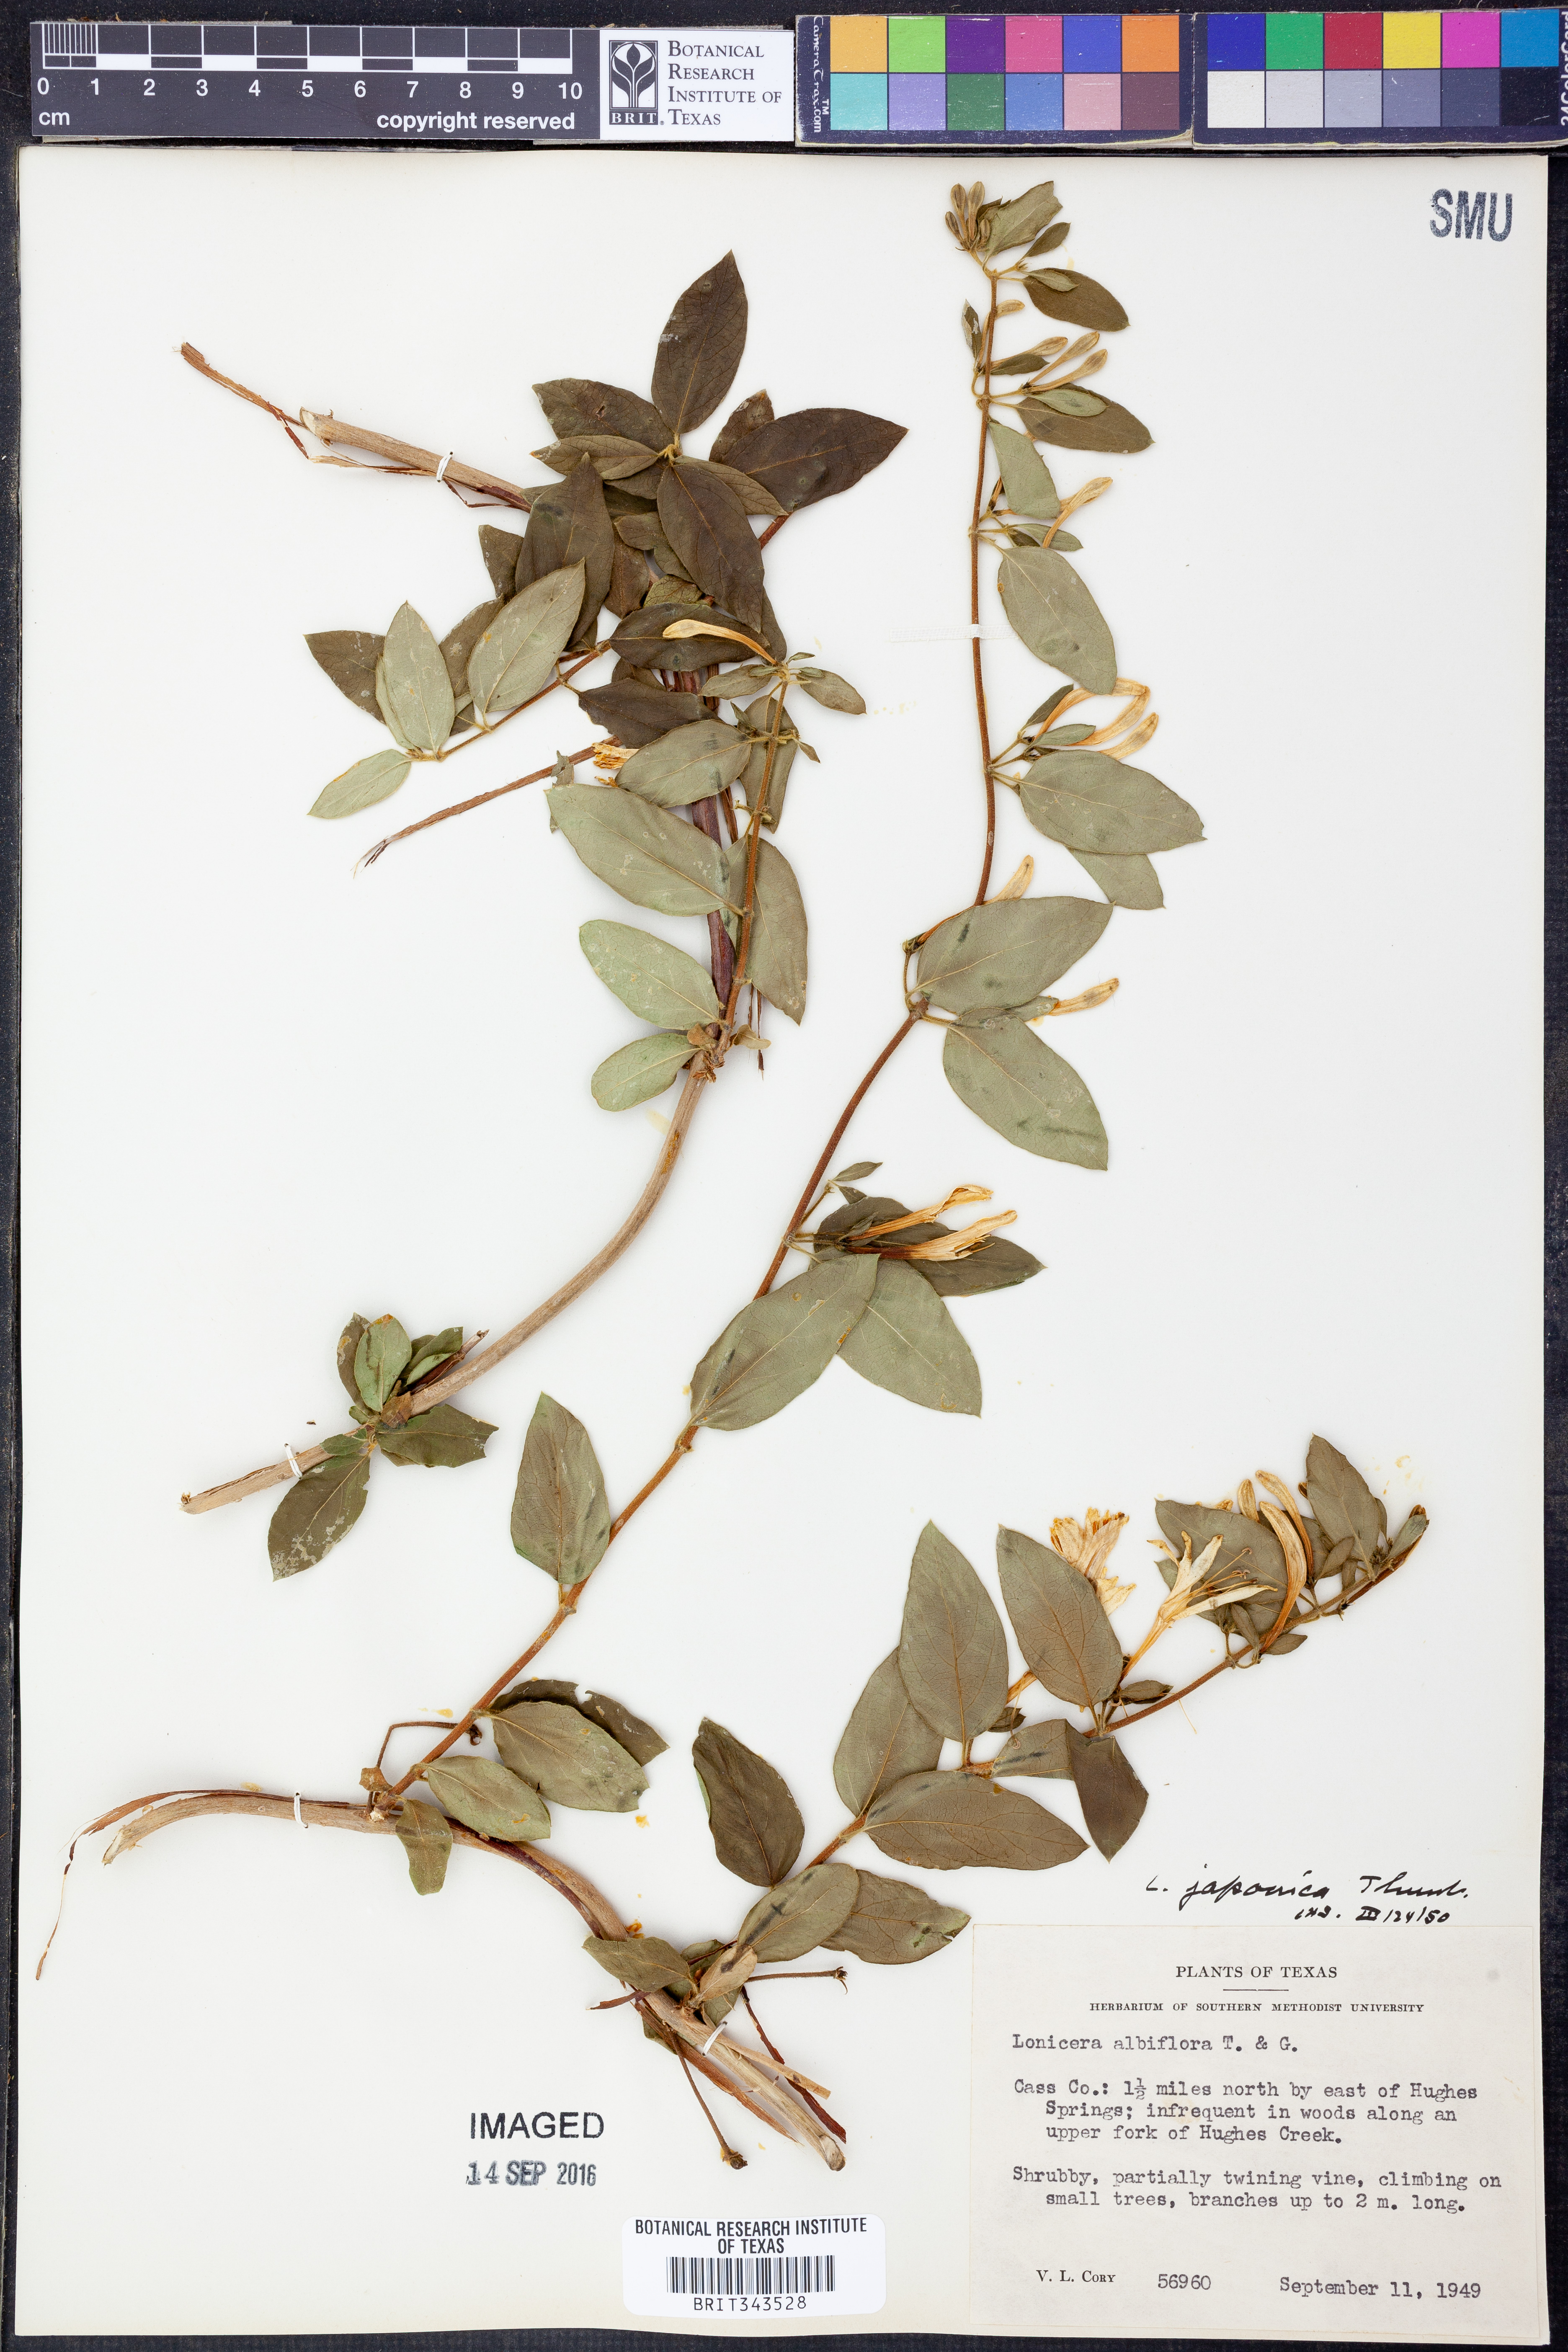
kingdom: Plantae
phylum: Tracheophyta
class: Magnoliopsida
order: Dipsacales
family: Caprifoliaceae
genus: Lonicera
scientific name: Lonicera albiflora
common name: White honeysuckle
